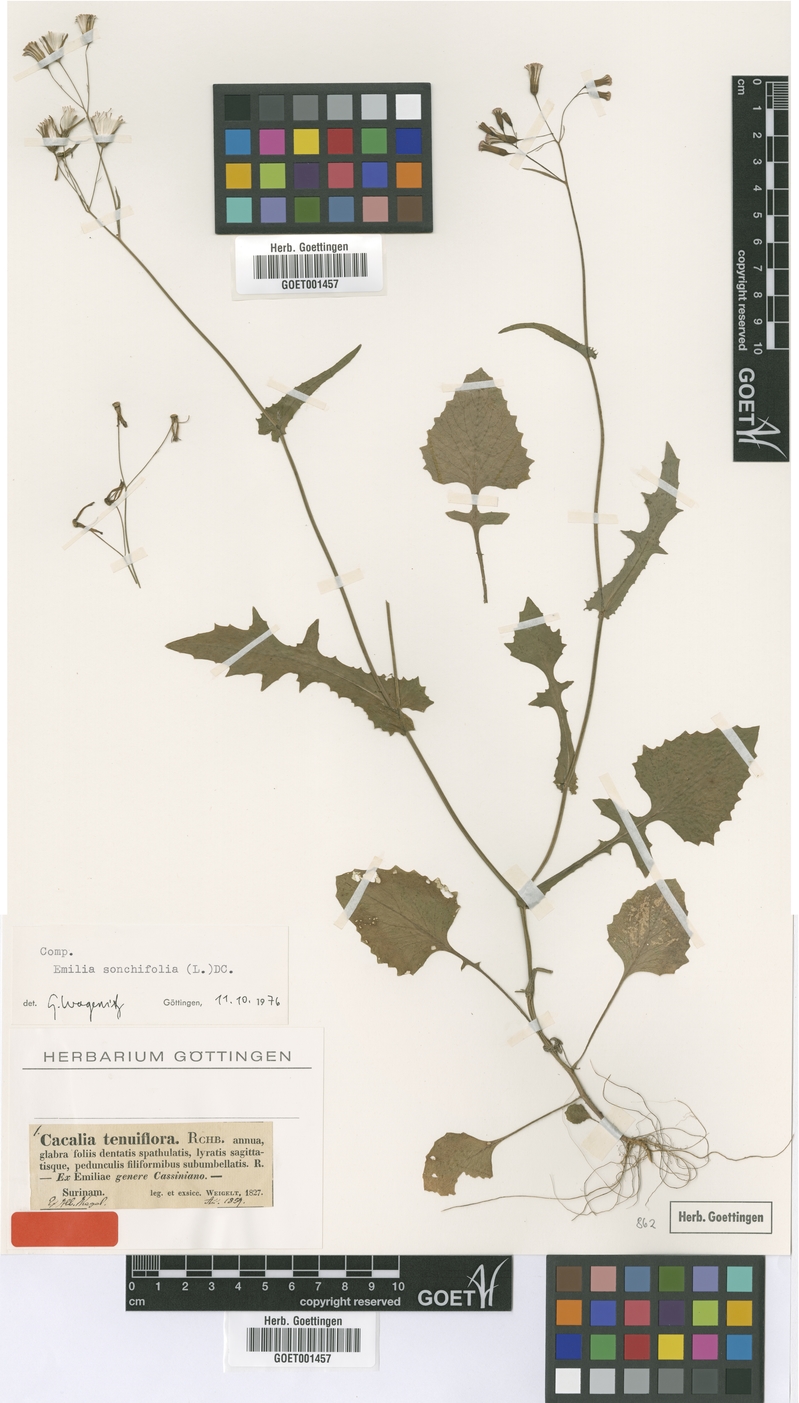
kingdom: Plantae
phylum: Tracheophyta
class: Magnoliopsida
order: Asterales
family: Asteraceae
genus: Emilia
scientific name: Emilia sonchifolia
